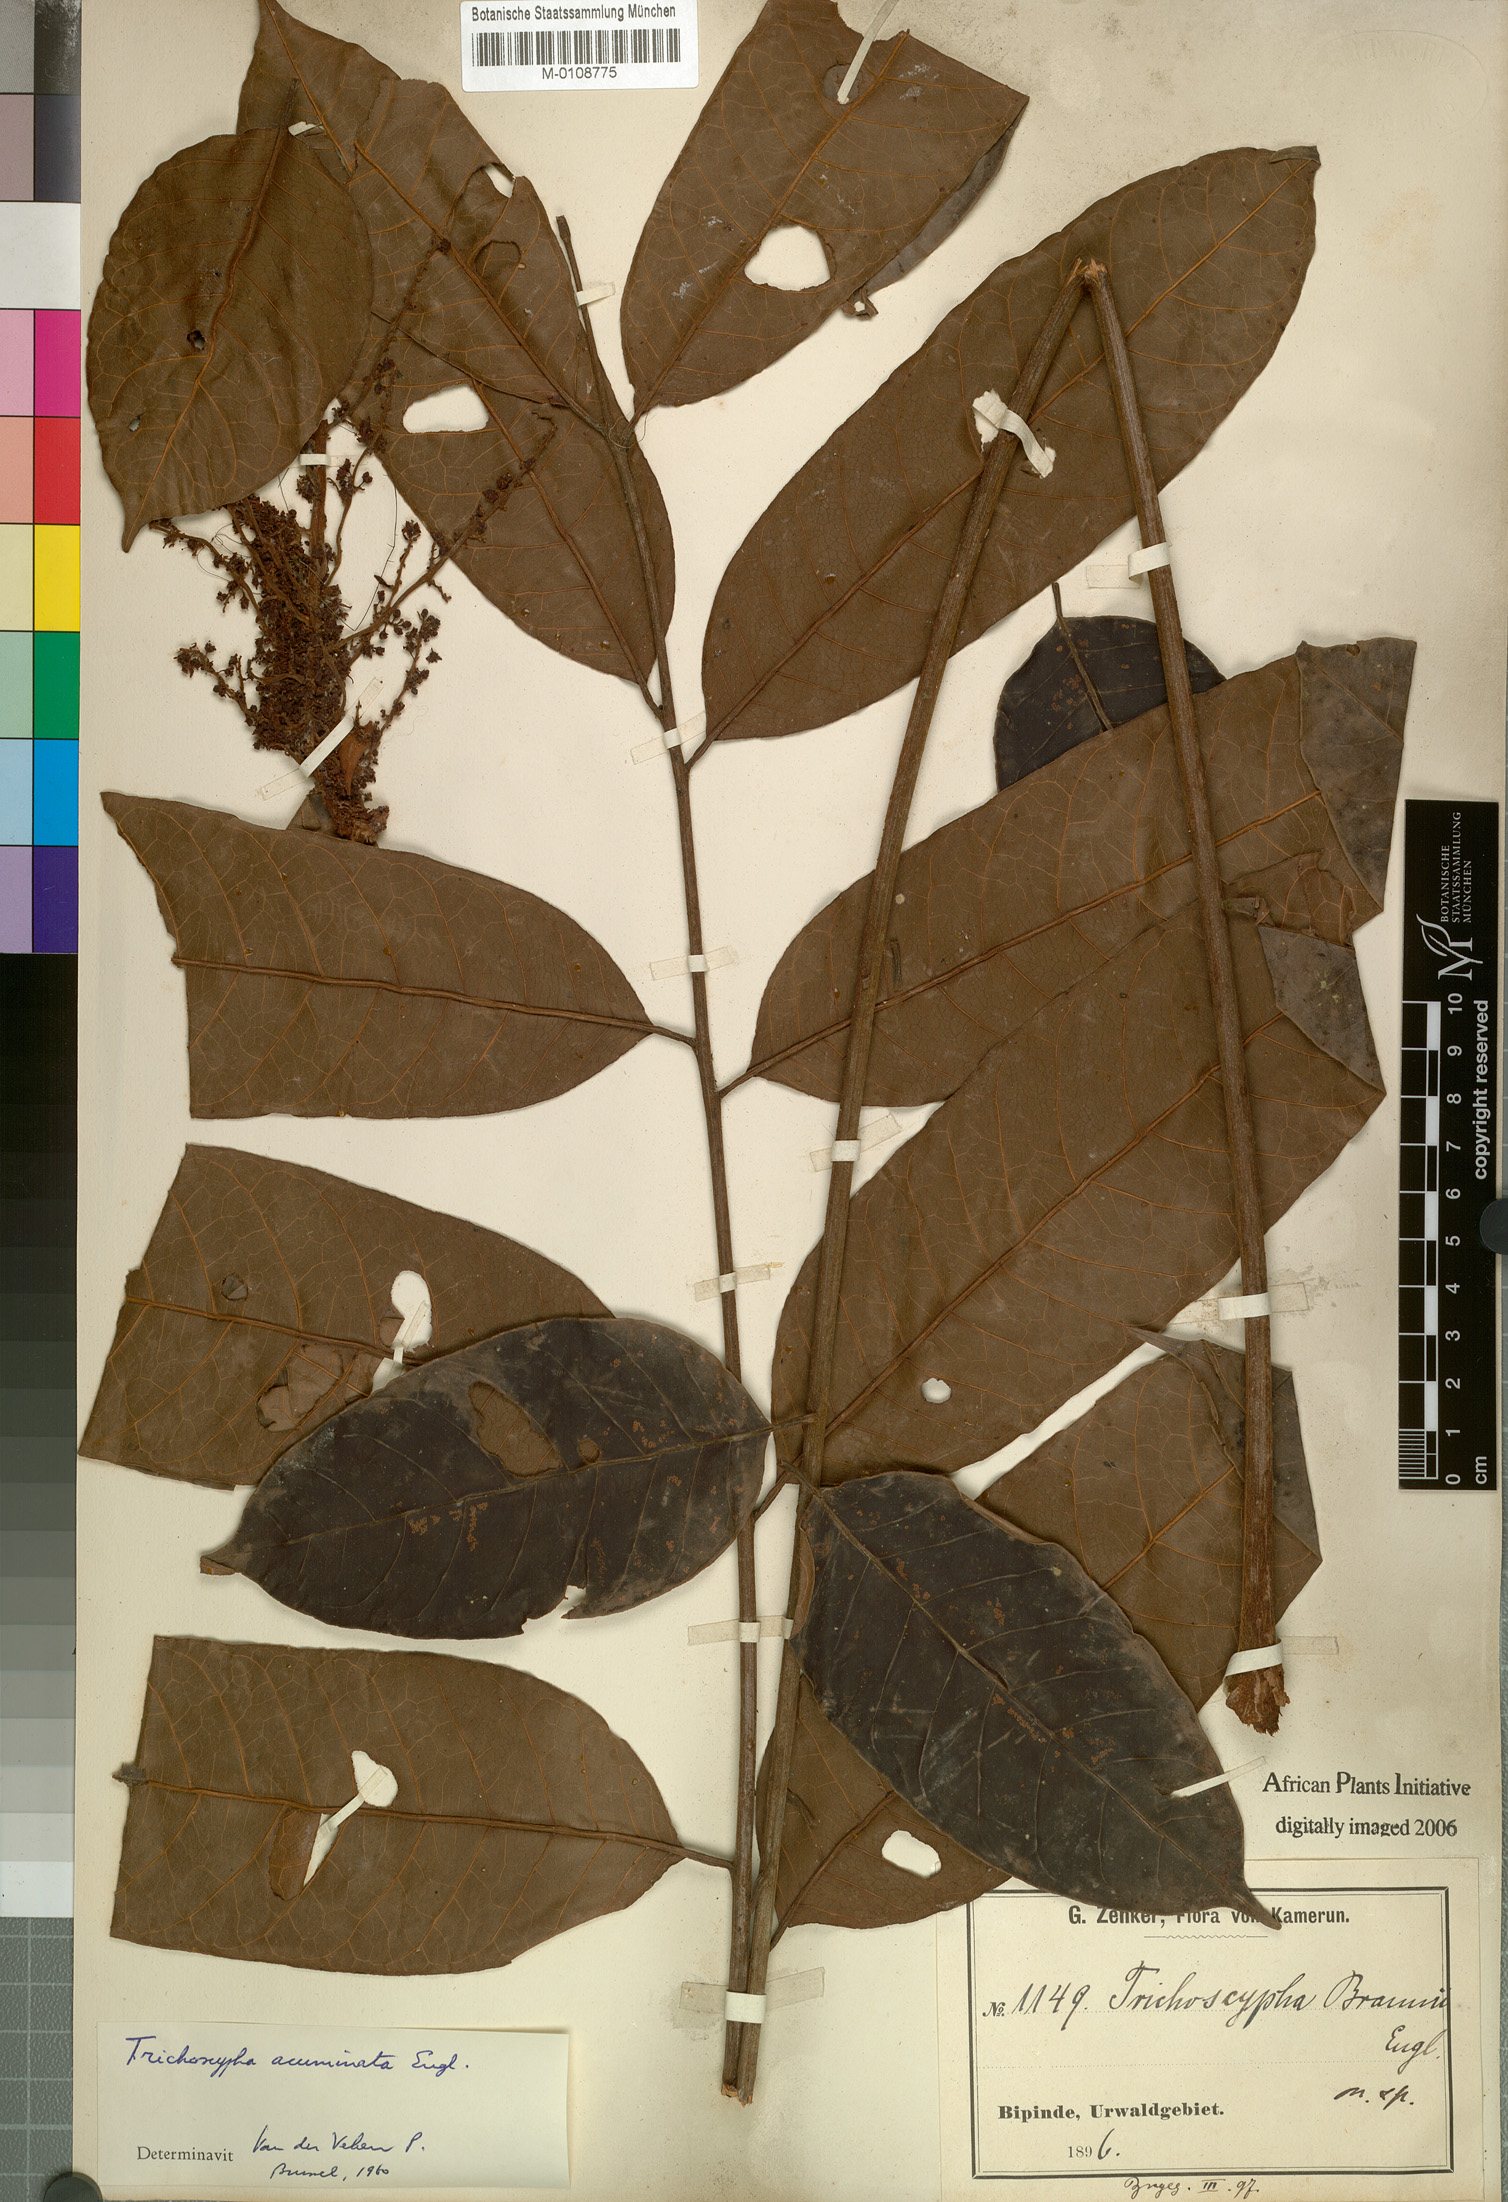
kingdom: Plantae
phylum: Tracheophyta
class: Magnoliopsida
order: Sapindales
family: Anacardiaceae
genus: Trichoscypha
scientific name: Trichoscypha acuminata
